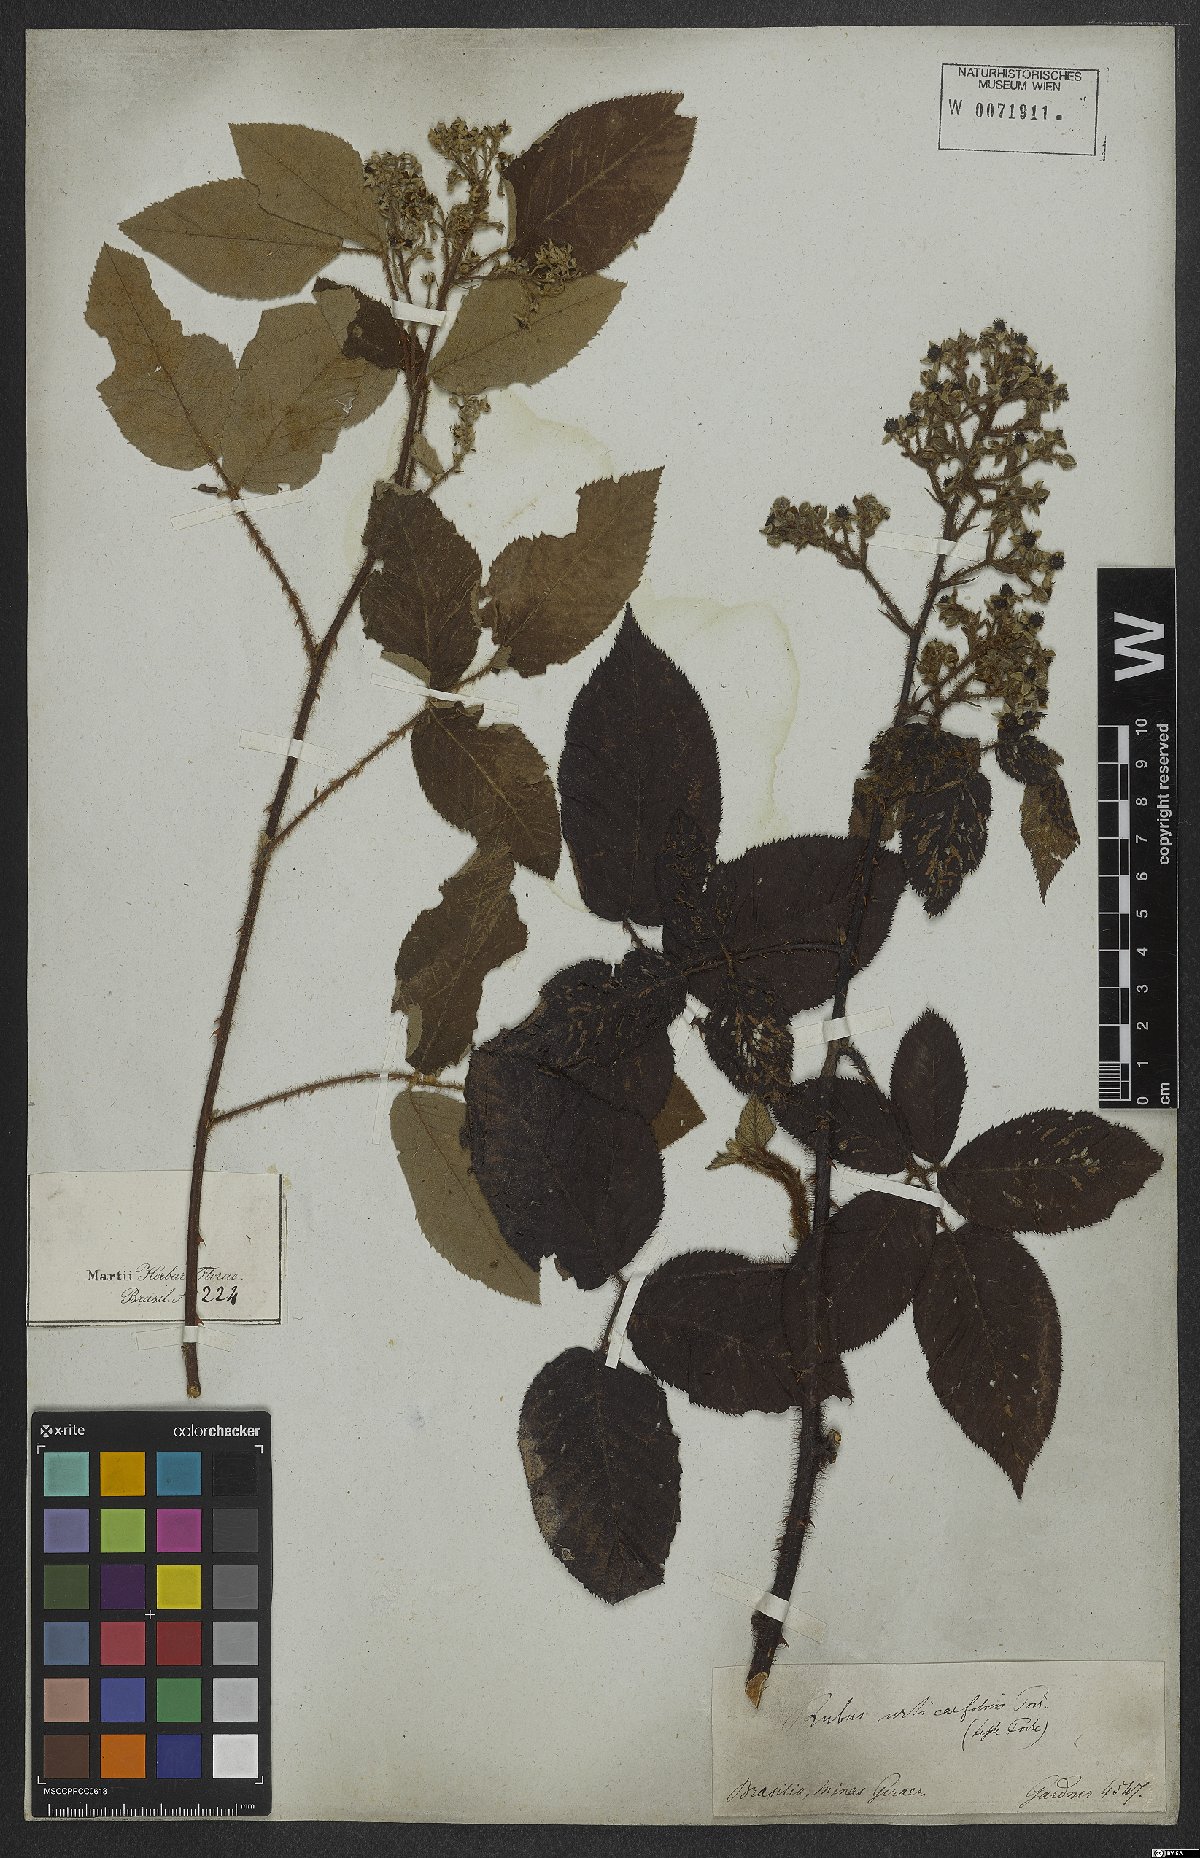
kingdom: Plantae
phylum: Tracheophyta
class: Magnoliopsida
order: Rosales
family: Rosaceae
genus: Rubus
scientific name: Rubus urticifolius
